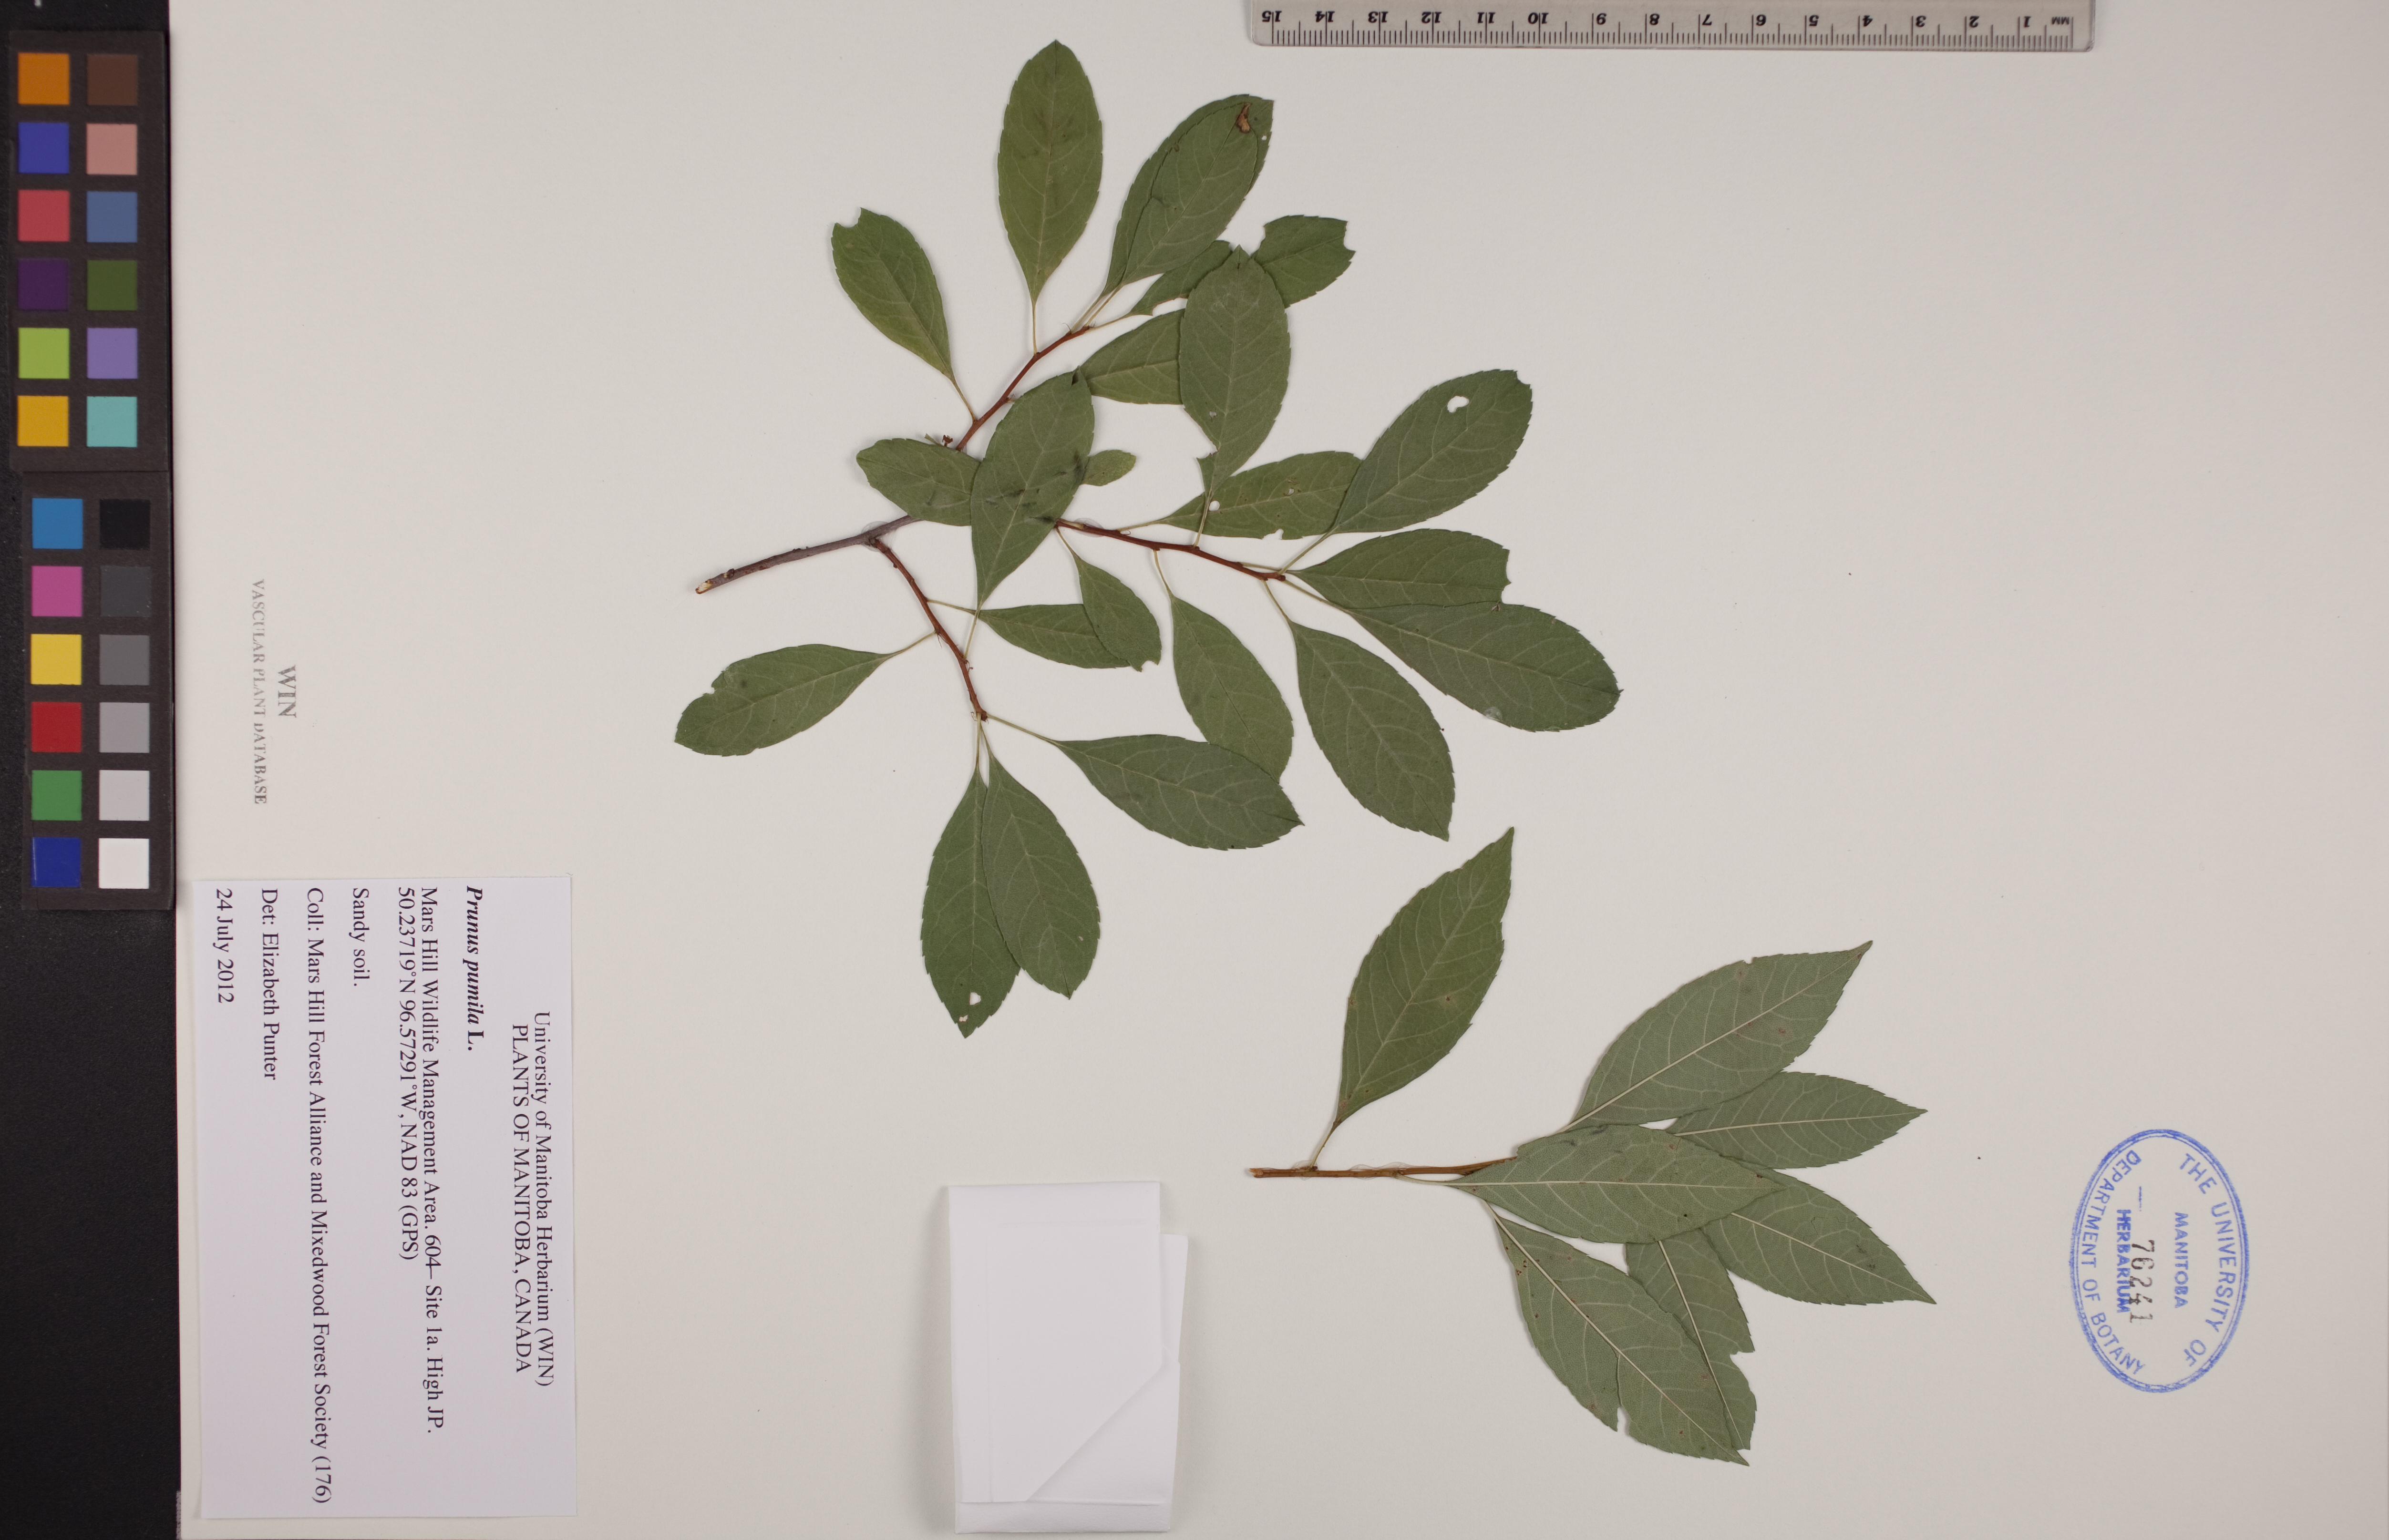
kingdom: Plantae
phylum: Tracheophyta
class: Magnoliopsida
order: Rosales
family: Rosaceae
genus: Prunus
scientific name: Prunus pumila
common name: Dwarf cherry
